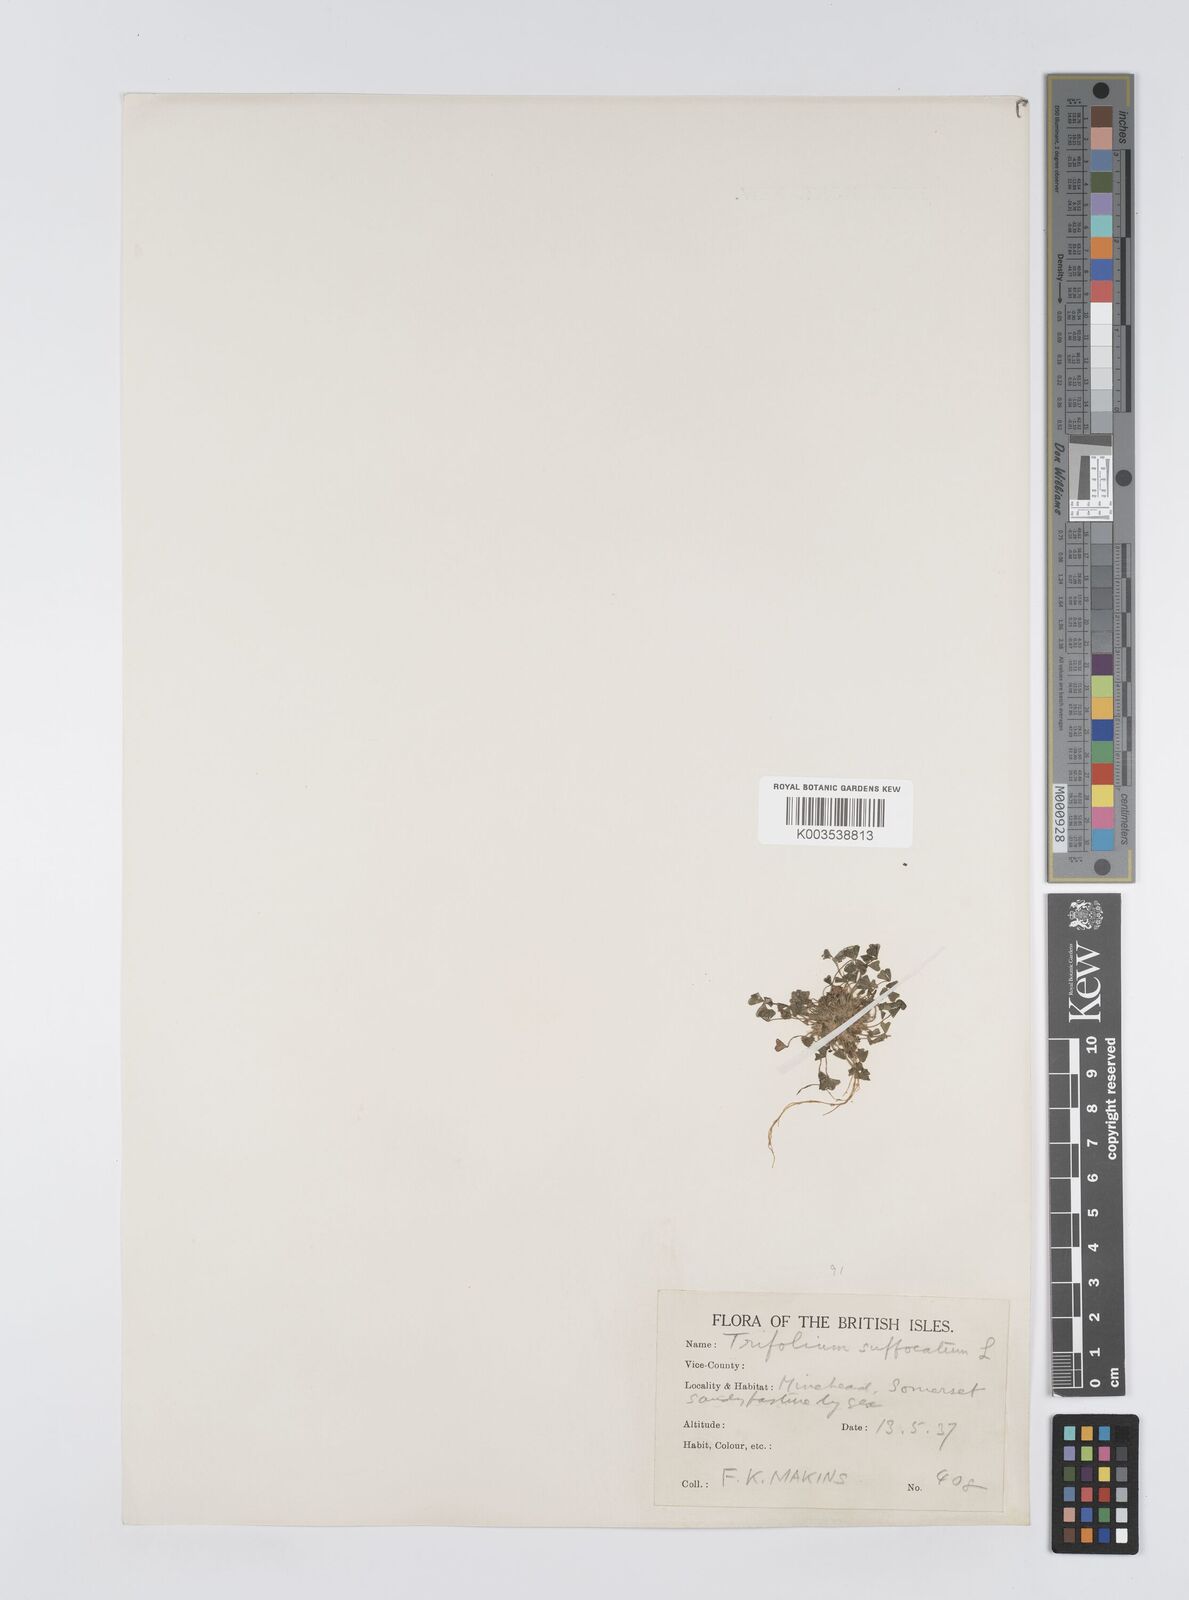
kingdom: Plantae
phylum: Tracheophyta
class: Magnoliopsida
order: Fabales
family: Fabaceae
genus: Trifolium
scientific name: Trifolium suffocatum
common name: Suffocated clover
